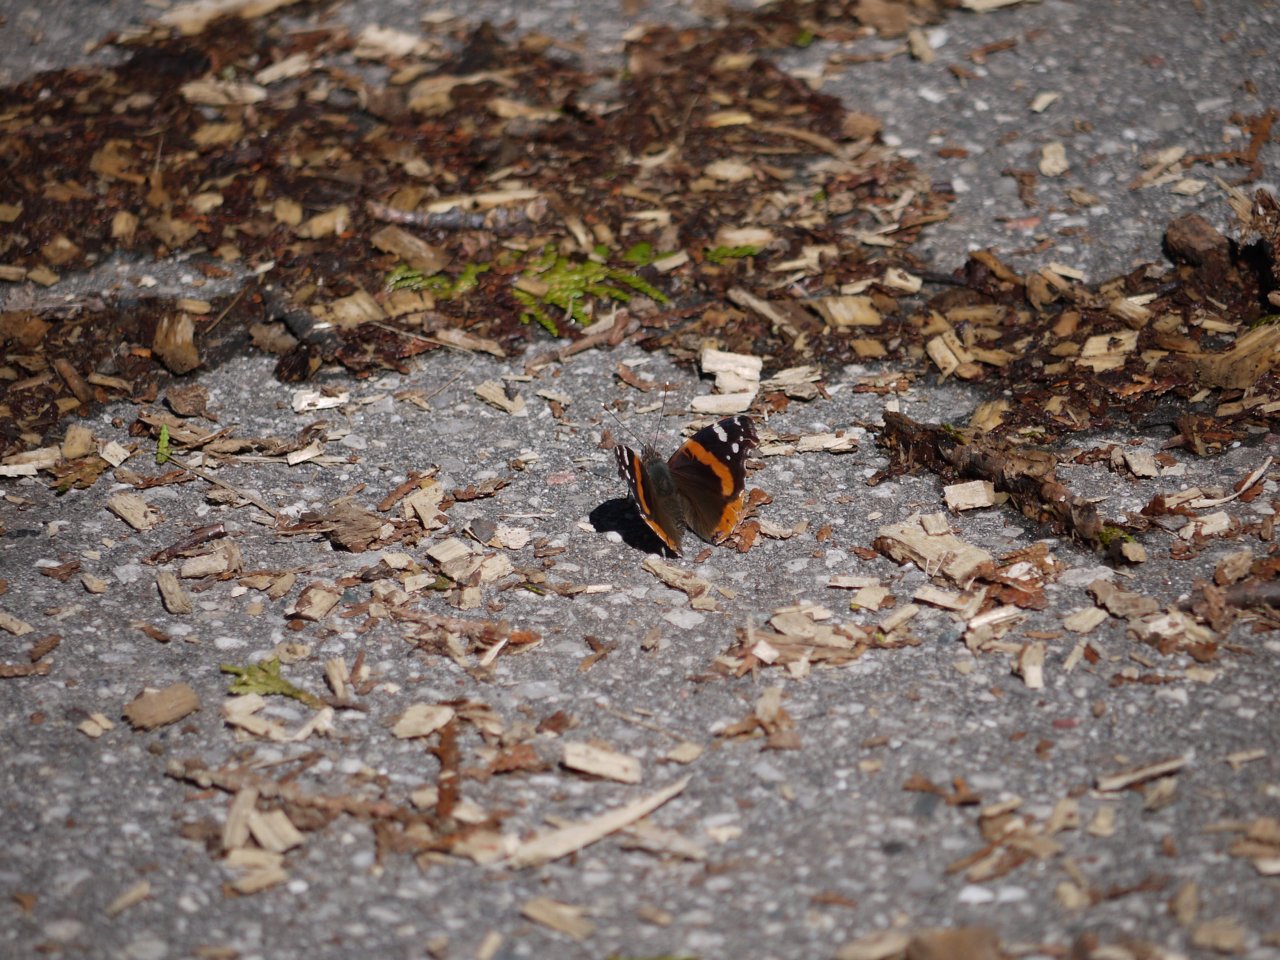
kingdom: Animalia
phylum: Arthropoda
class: Insecta
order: Lepidoptera
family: Nymphalidae
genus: Vanessa
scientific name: Vanessa atalanta
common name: Red Admiral
